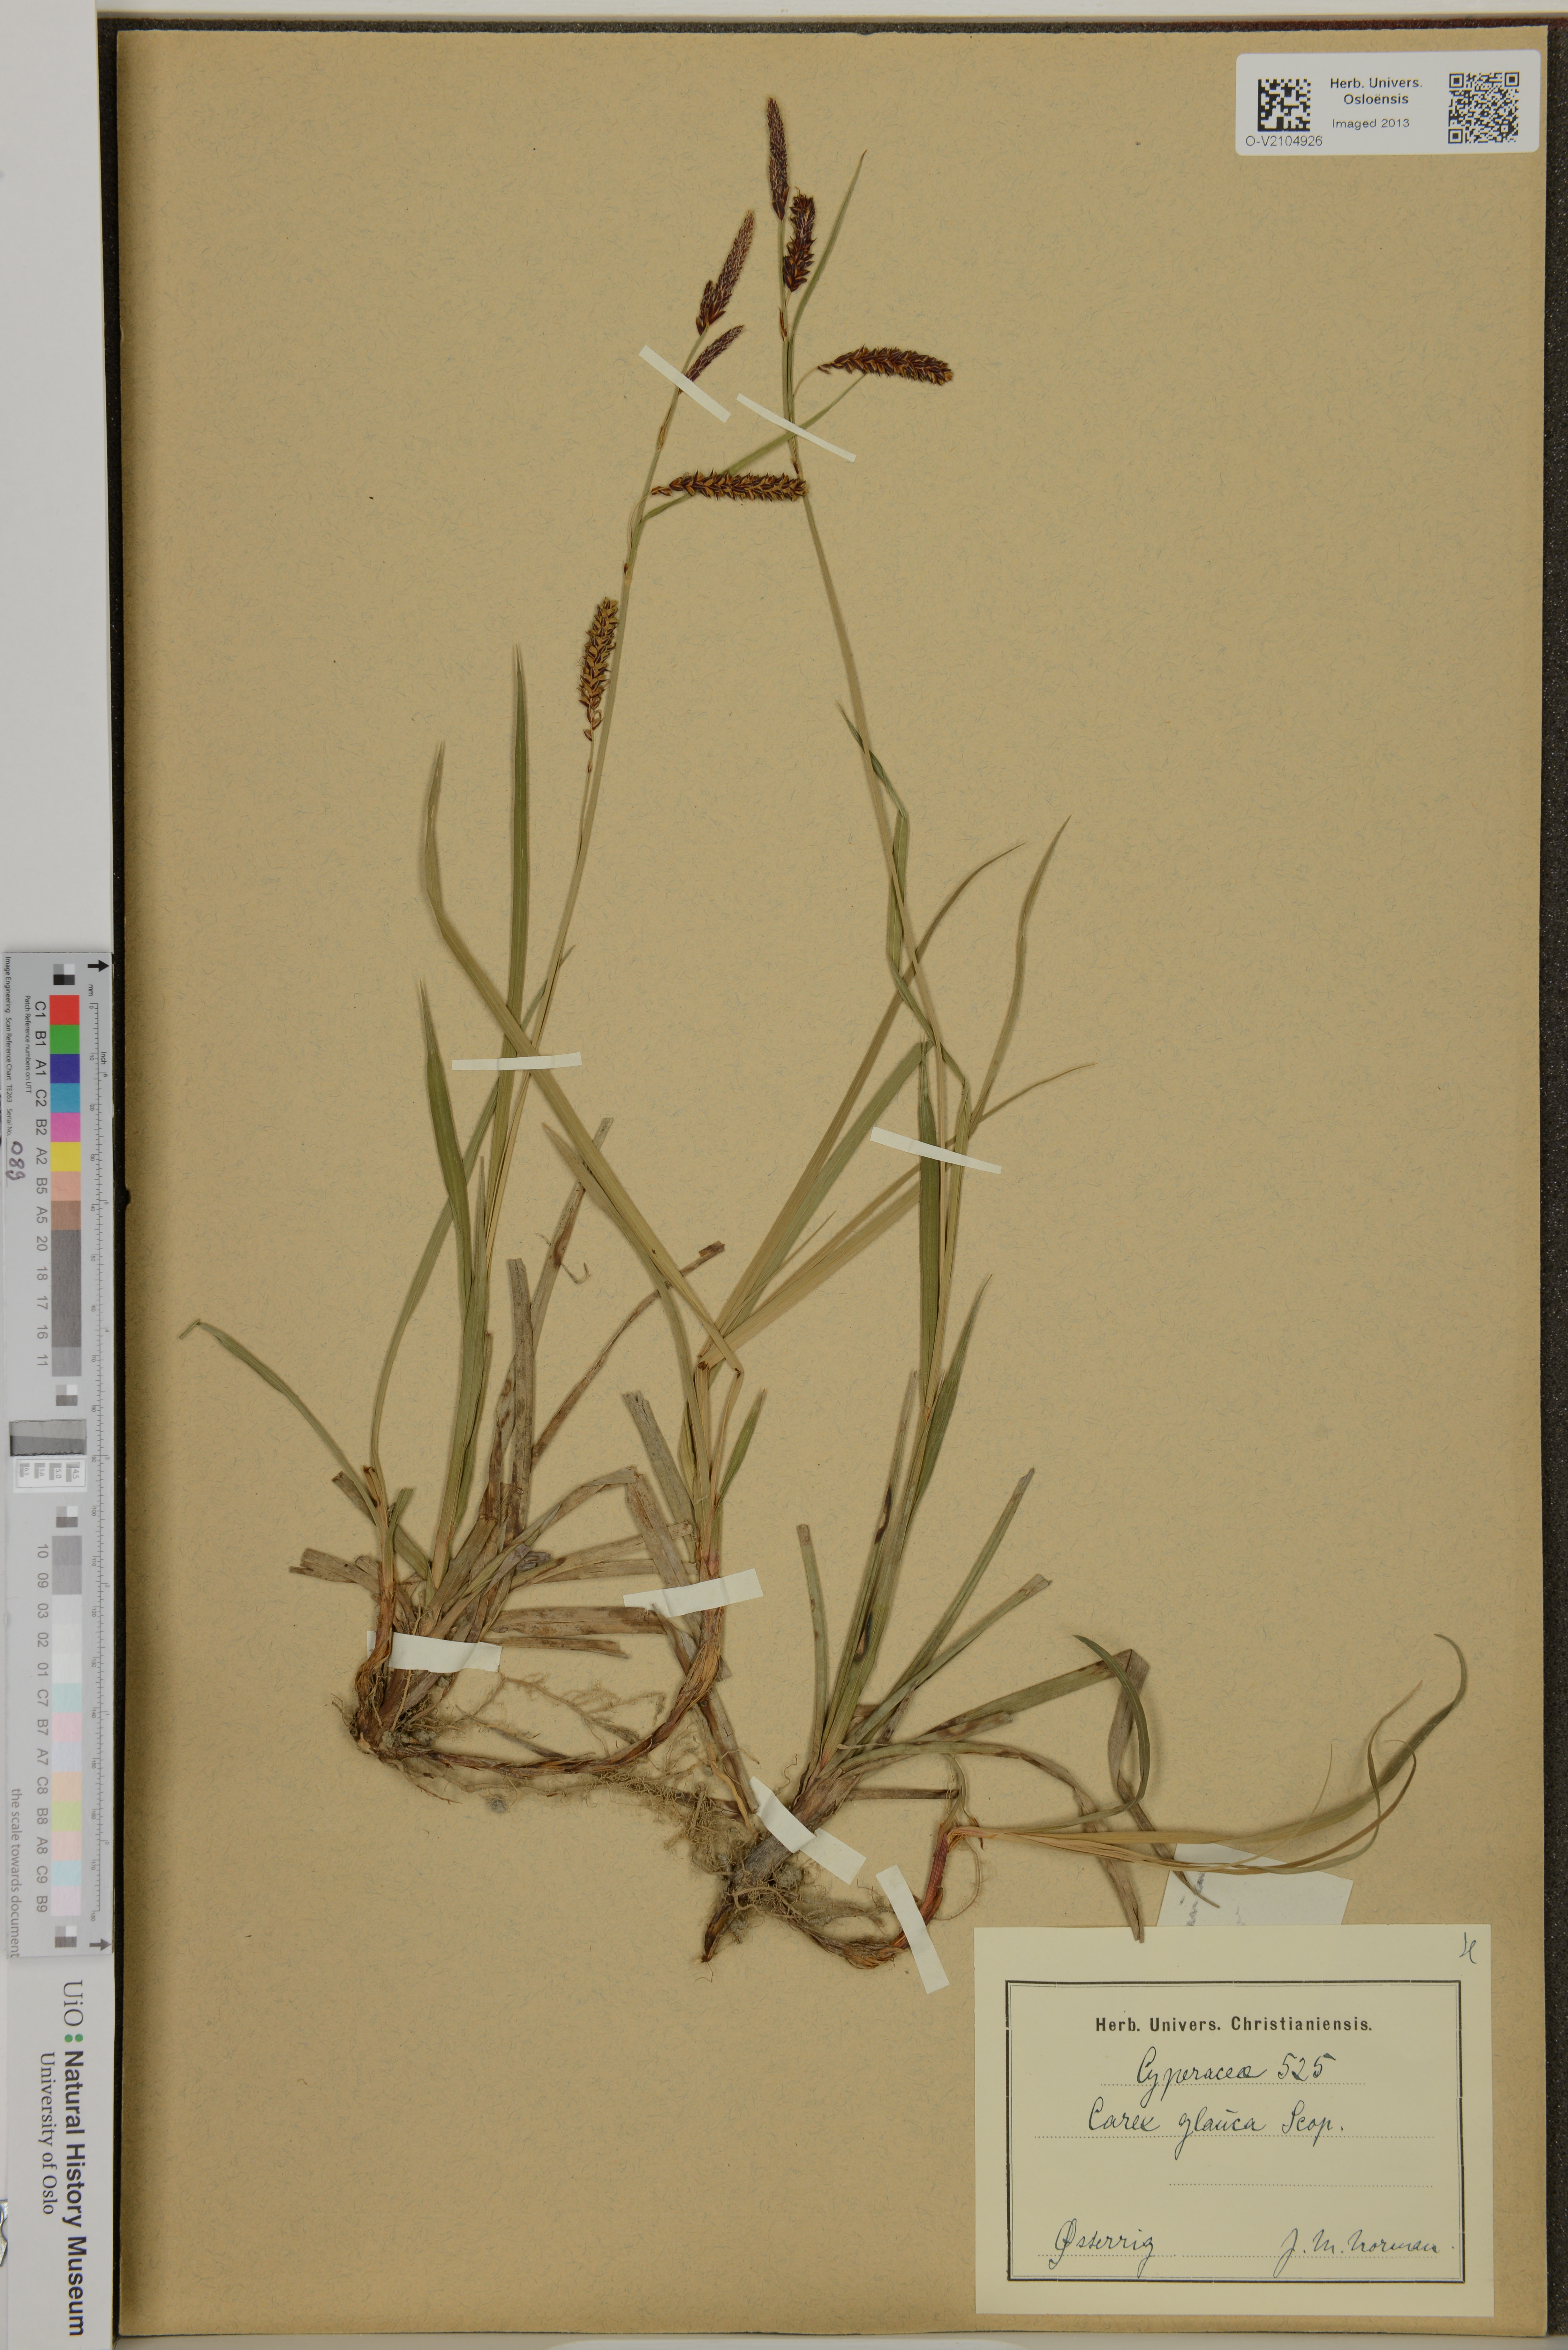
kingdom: Plantae
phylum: Tracheophyta
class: Liliopsida
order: Poales
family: Cyperaceae
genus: Carex
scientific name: Carex flacca
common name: Glaucous sedge
